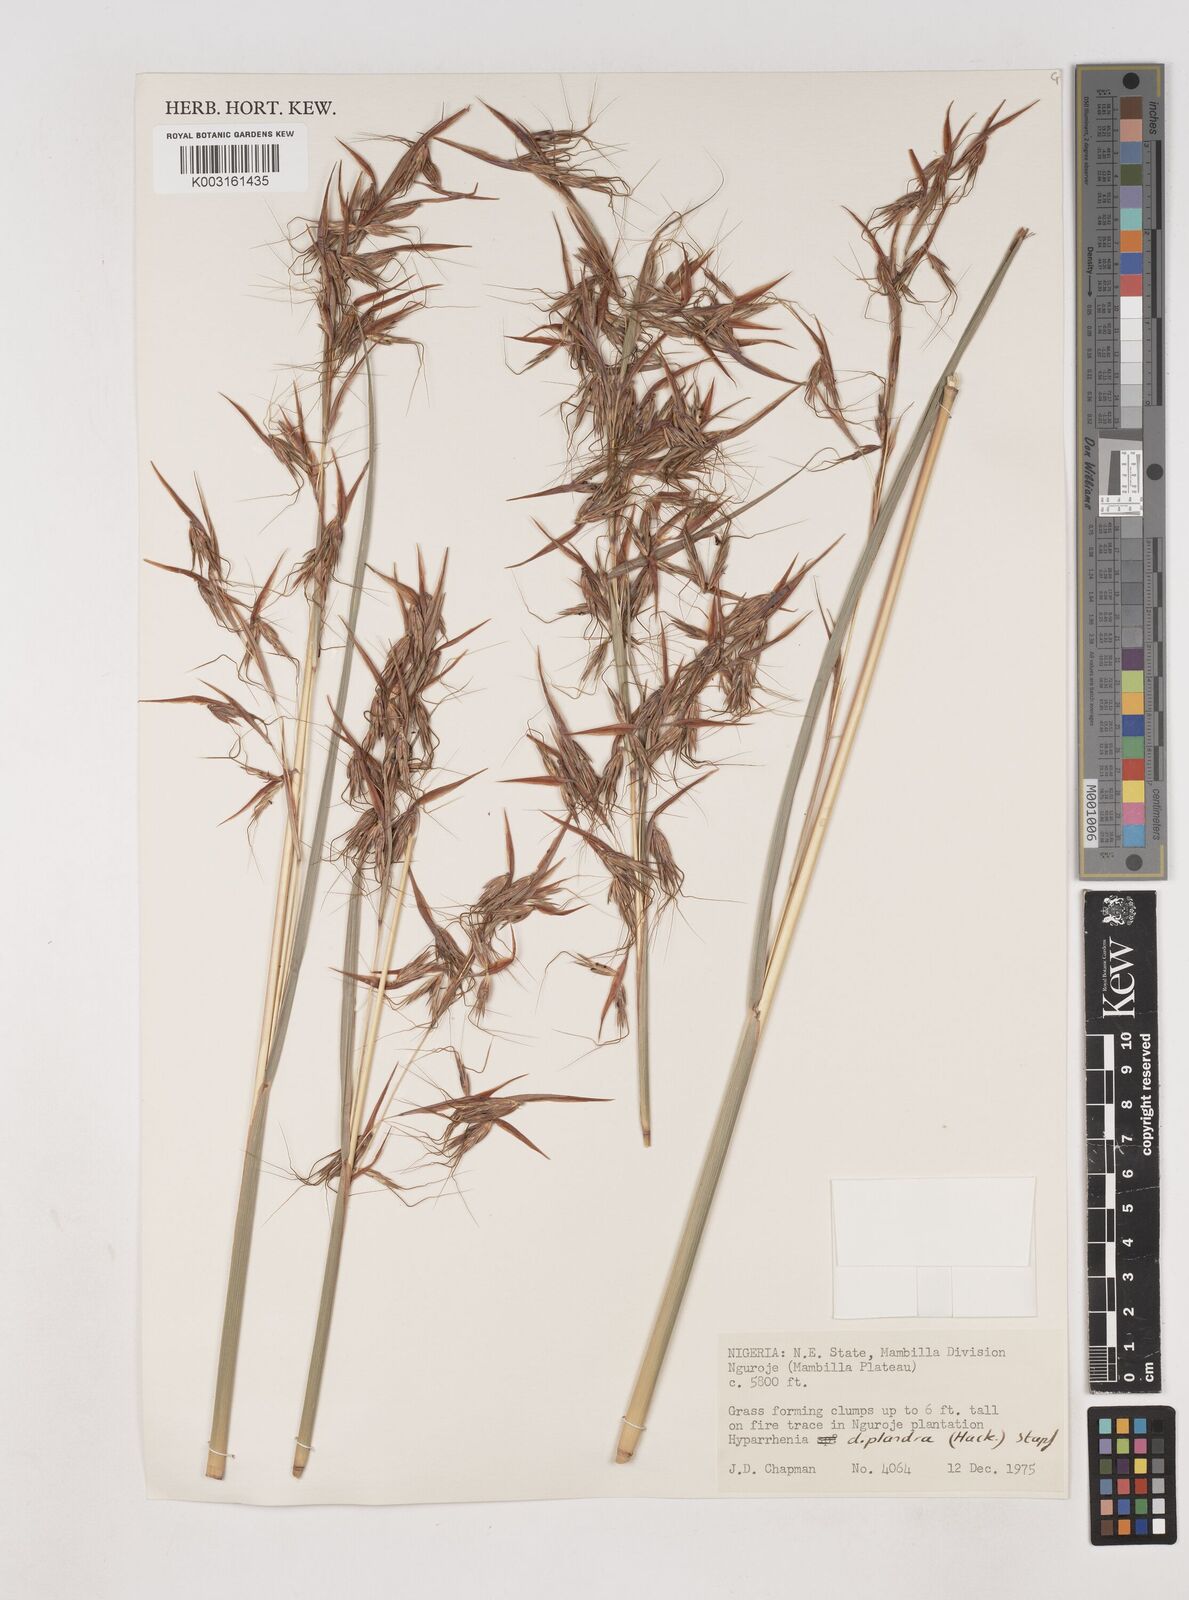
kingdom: Plantae
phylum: Tracheophyta
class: Liliopsida
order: Poales
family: Poaceae
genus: Hyparrhenia
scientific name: Hyparrhenia diplandra
